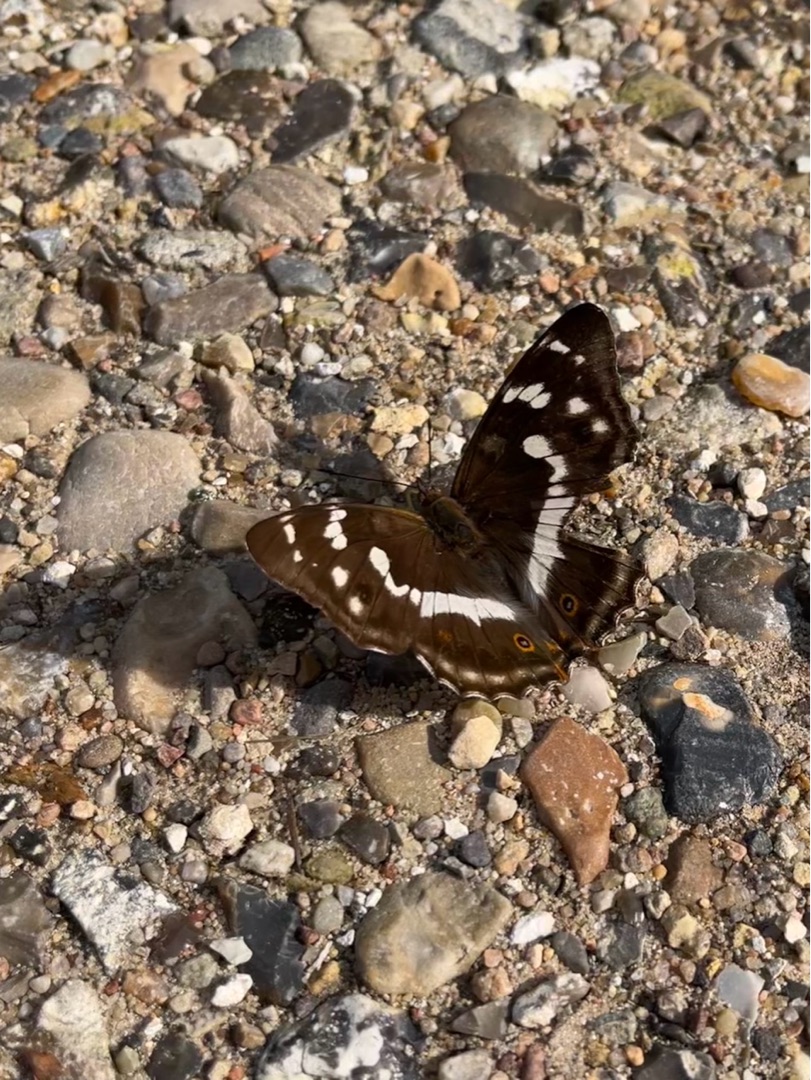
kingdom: Animalia
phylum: Arthropoda
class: Insecta
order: Lepidoptera
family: Nymphalidae
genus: Apatura
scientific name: Apatura iris
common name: Iris
